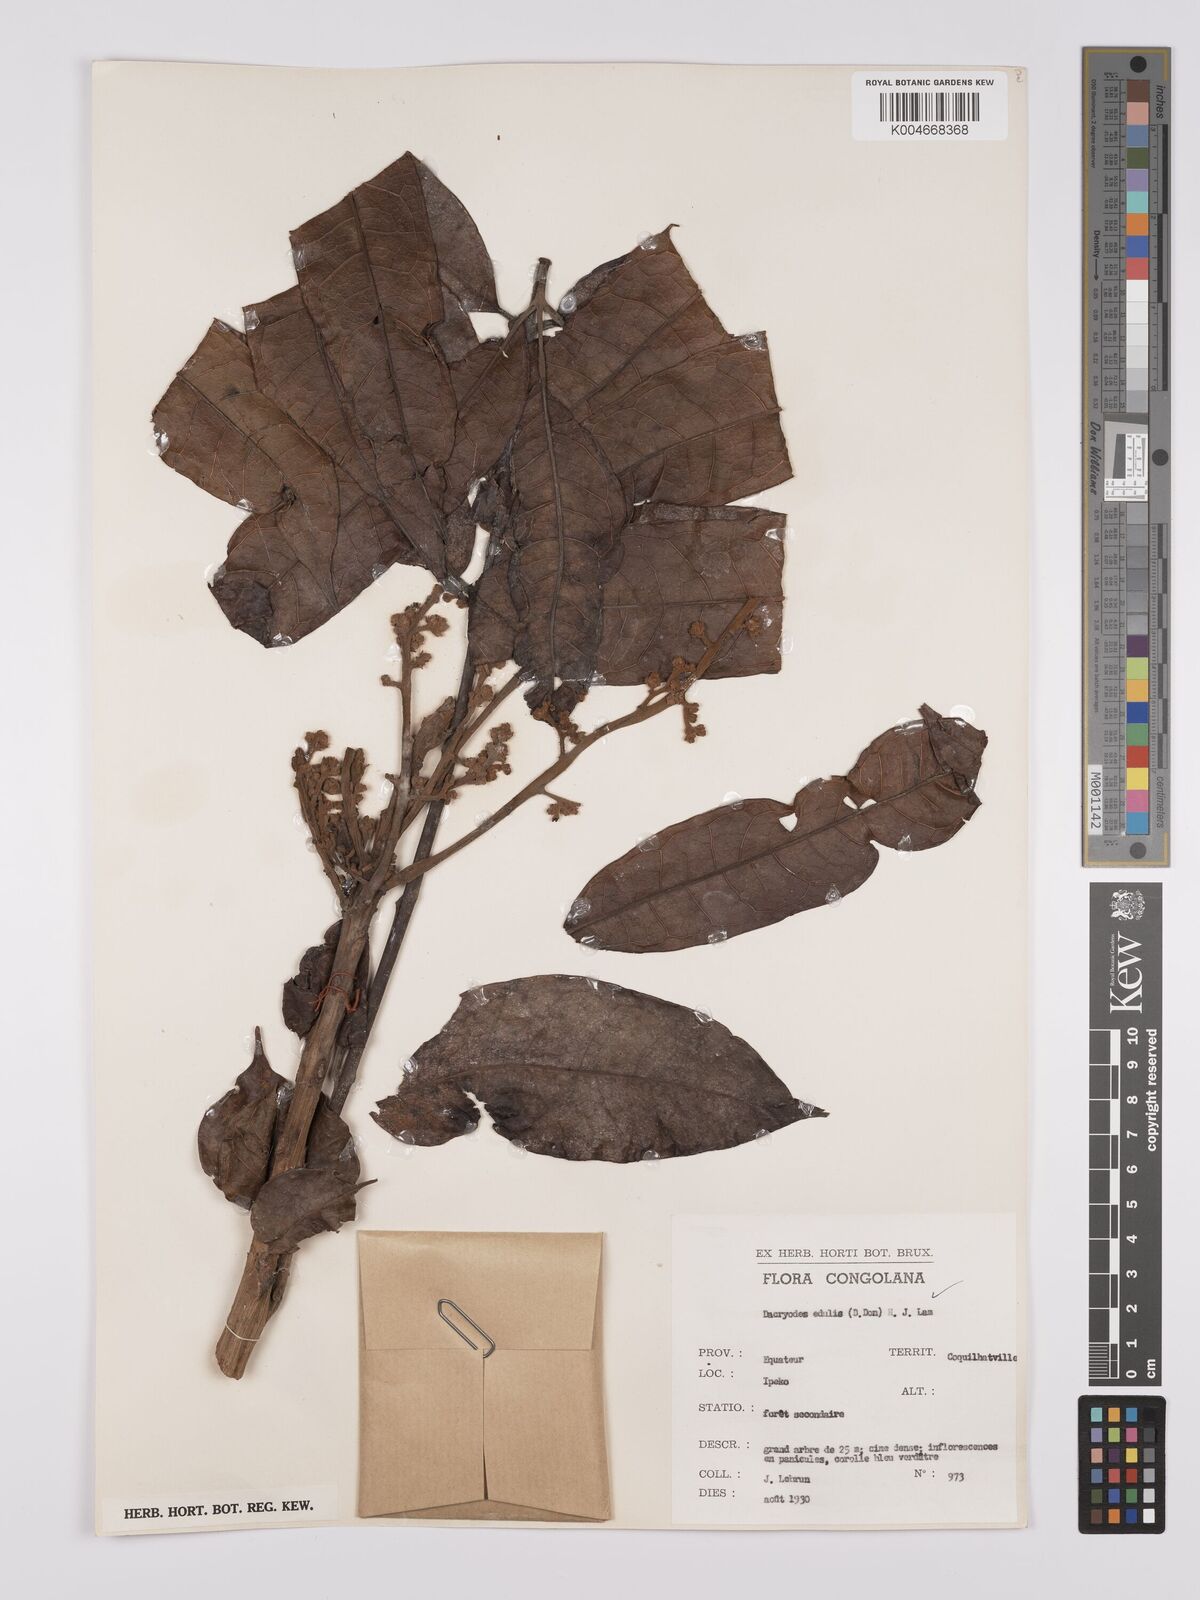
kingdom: Plantae
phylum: Tracheophyta
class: Magnoliopsida
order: Sapindales
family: Burseraceae
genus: Pachylobus
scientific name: Pachylobus edulis
